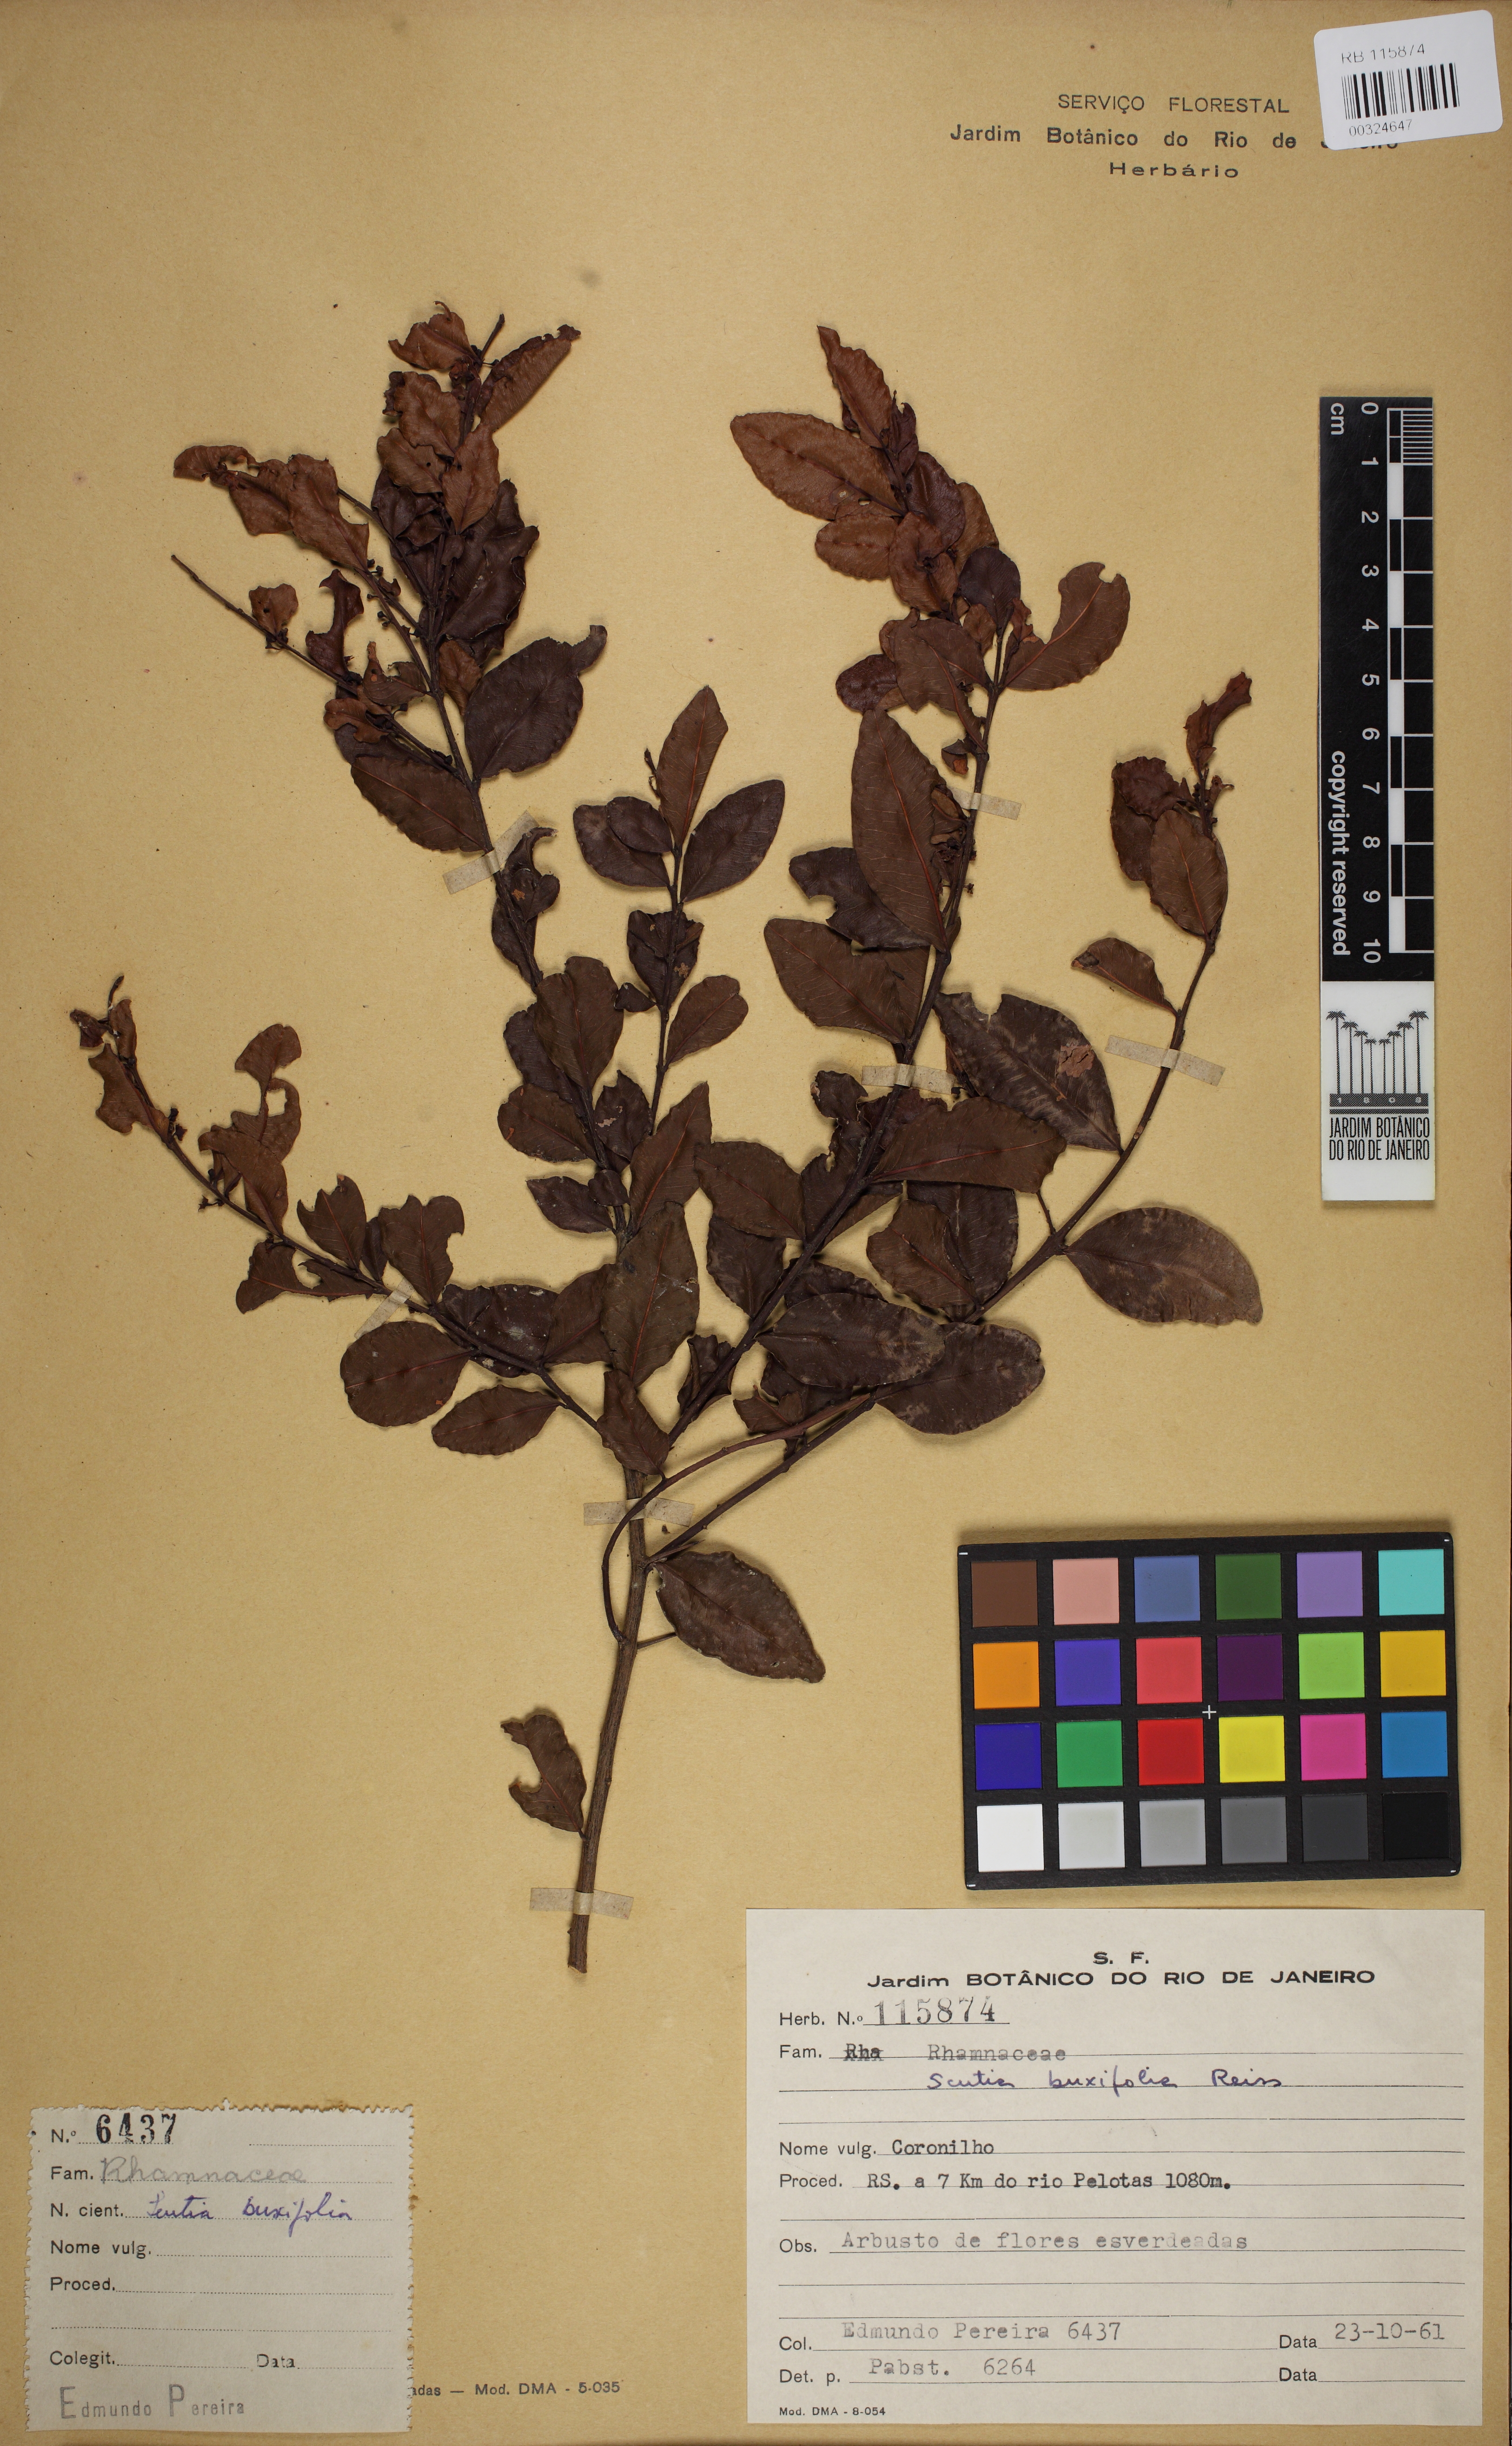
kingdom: Plantae
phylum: Tracheophyta
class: Magnoliopsida
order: Rosales
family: Rhamnaceae
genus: Scutia
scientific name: Scutia buxifolia
